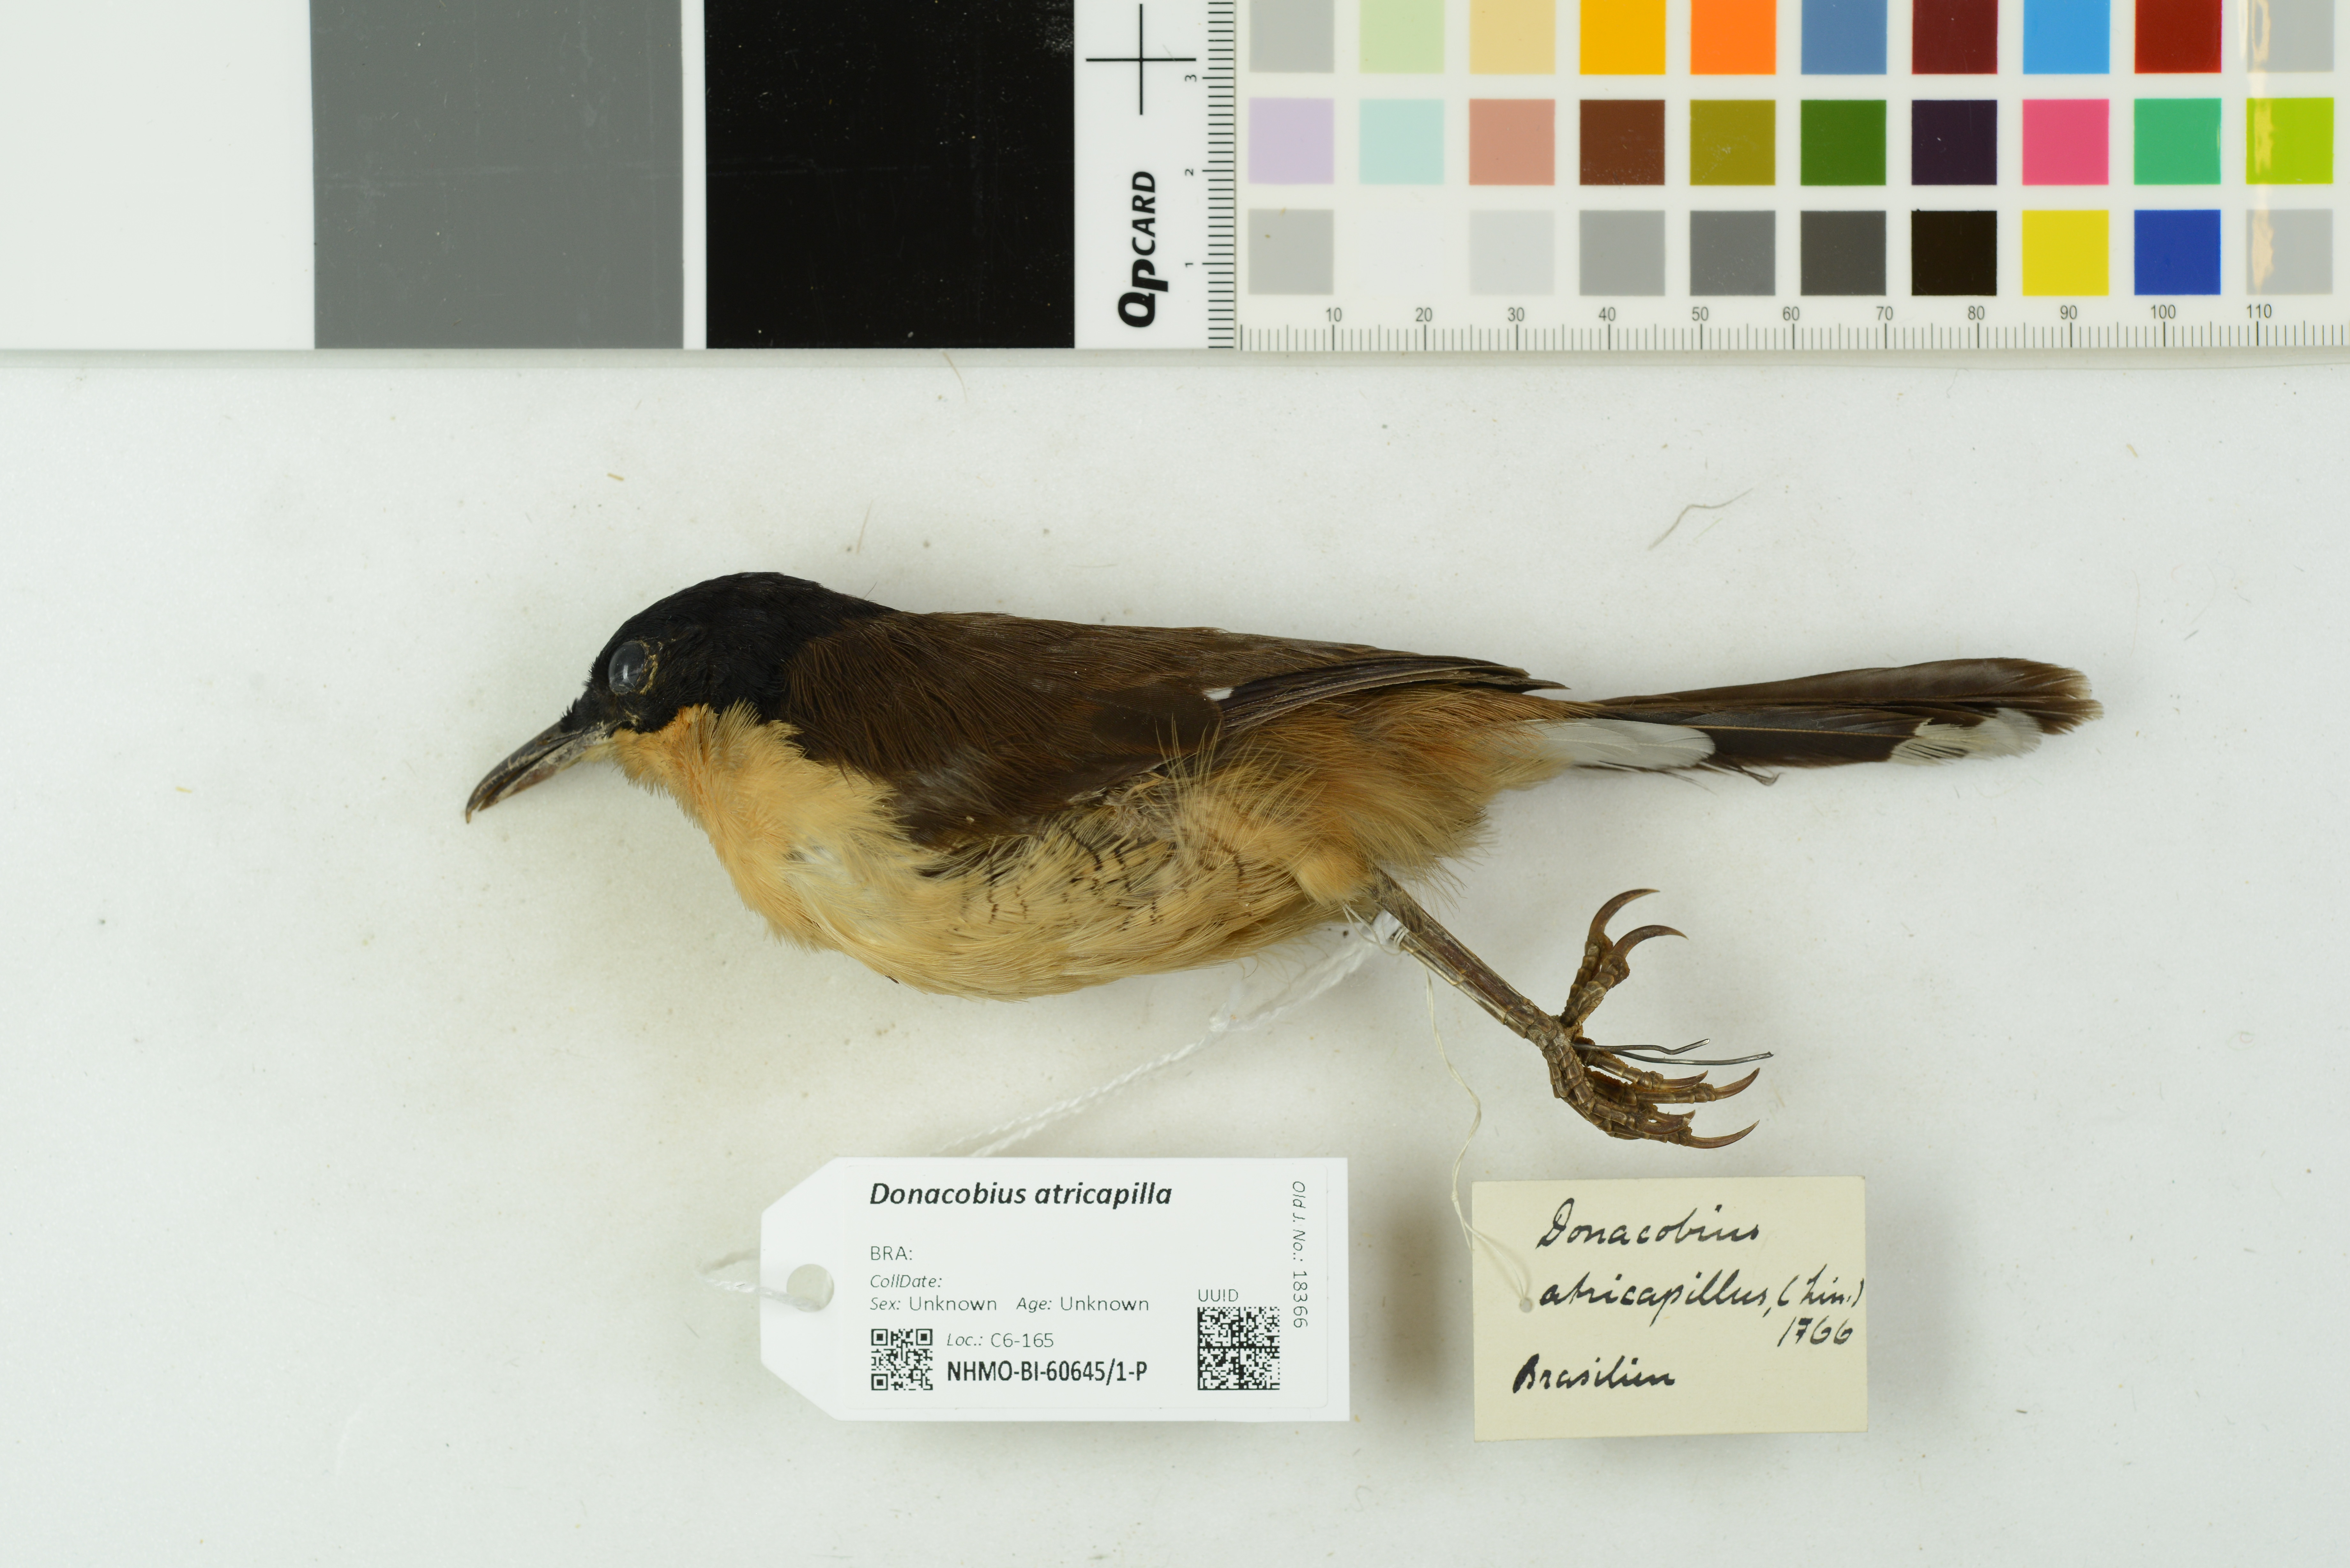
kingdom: Animalia
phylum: Chordata
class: Aves
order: Passeriformes
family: Donacobiidae
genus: Donacobius
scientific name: Donacobius atricapilla
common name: Black-capped donacobius
